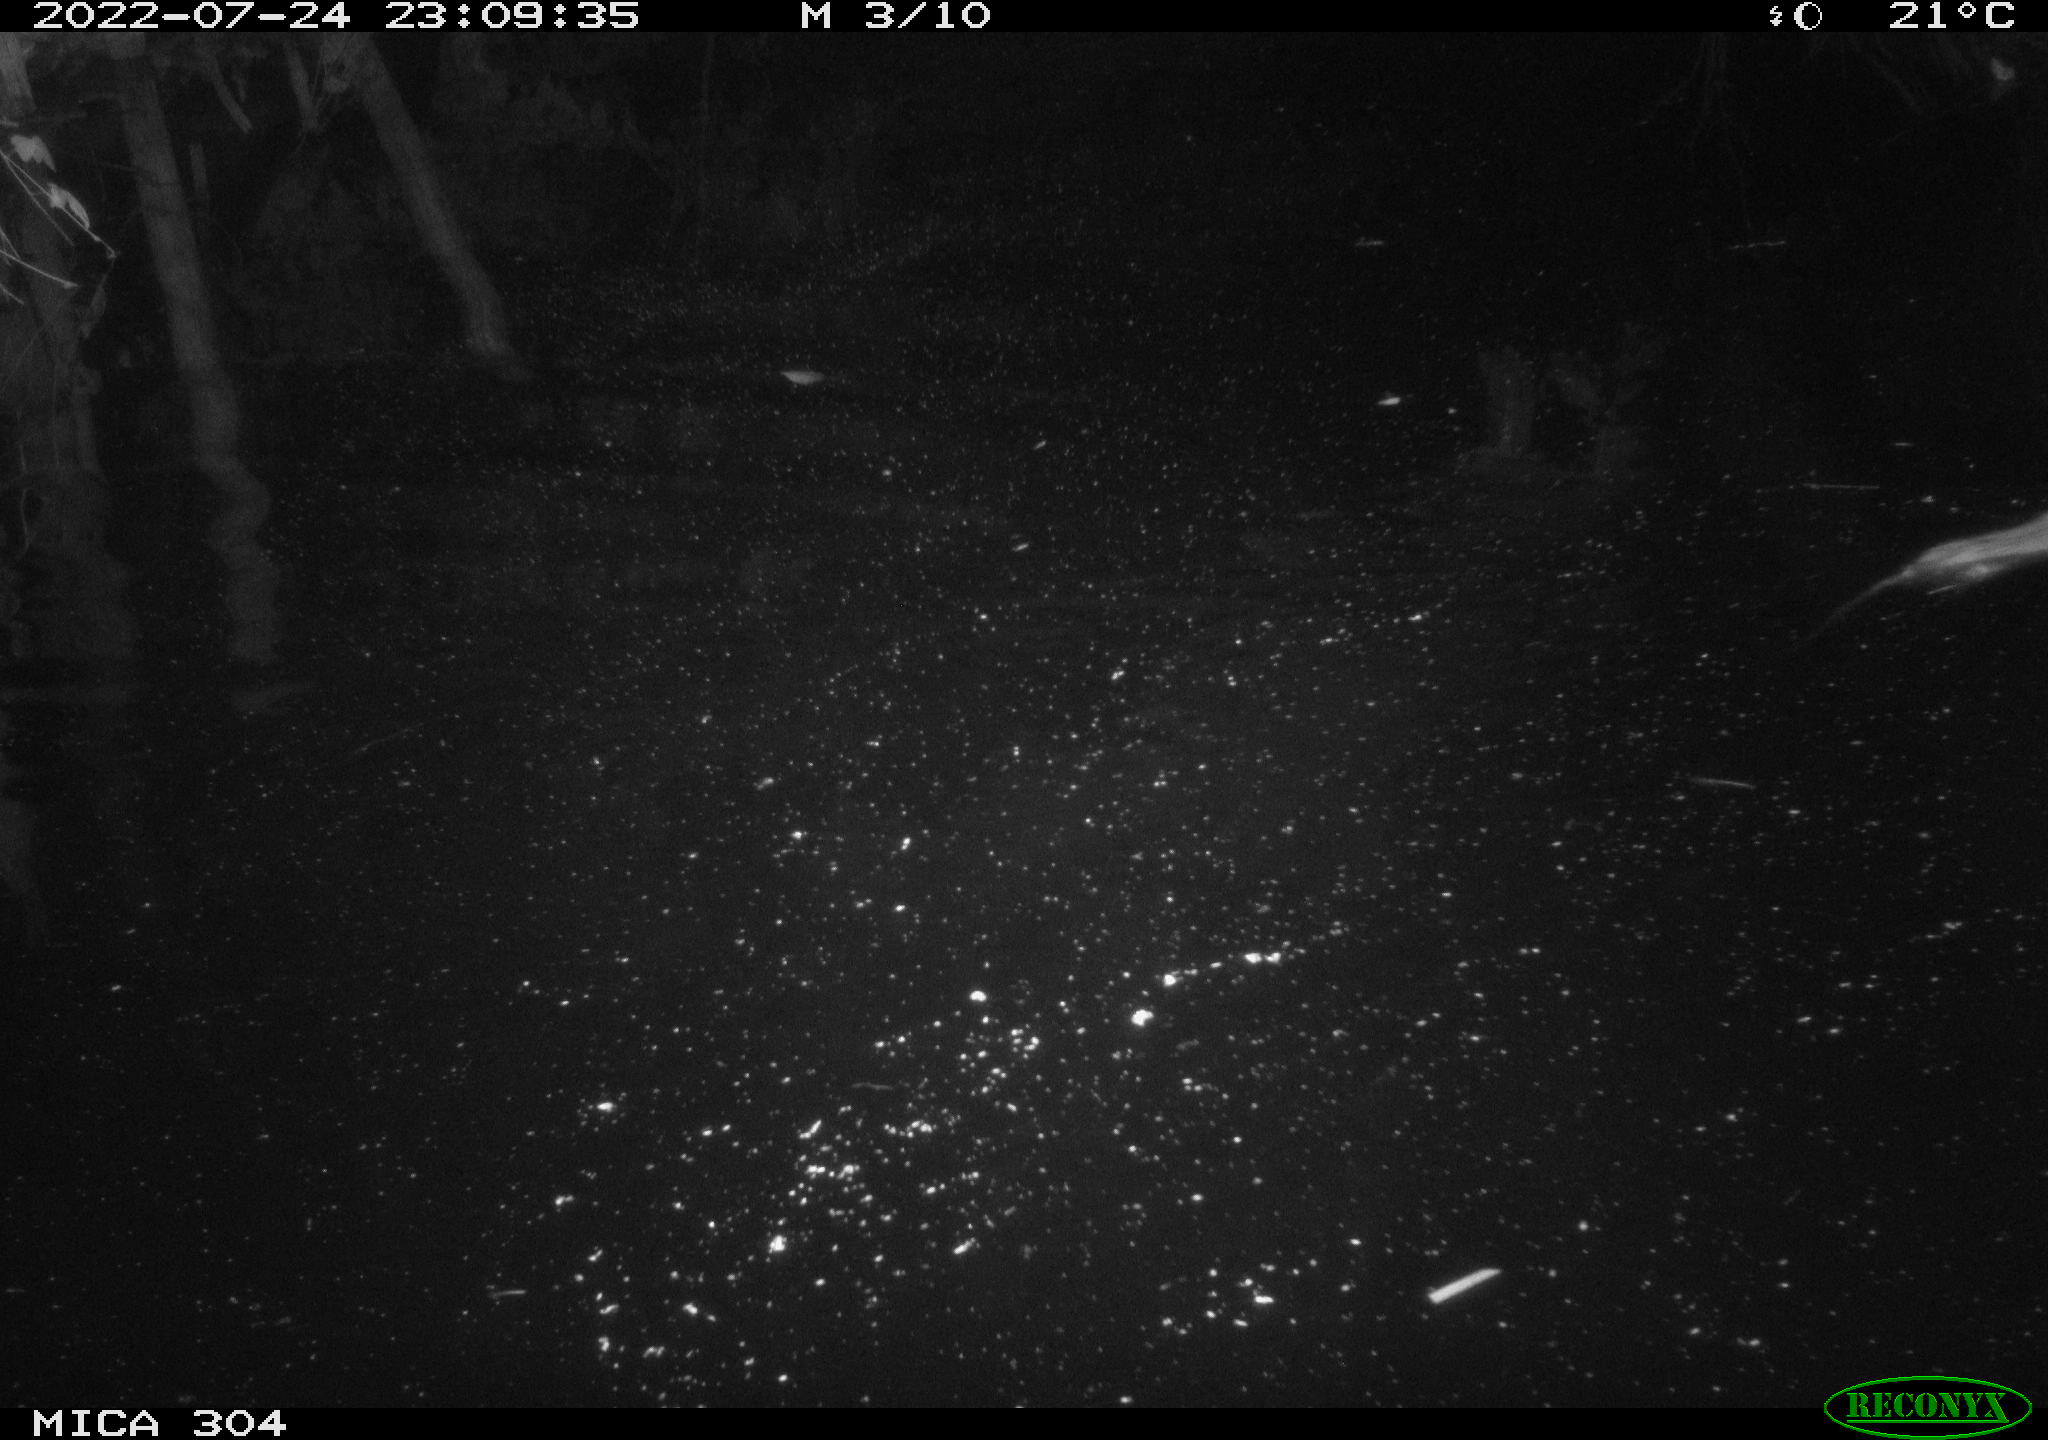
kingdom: Animalia
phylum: Chordata
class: Mammalia
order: Rodentia
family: Muridae
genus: Rattus
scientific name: Rattus norvegicus
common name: Brown rat
